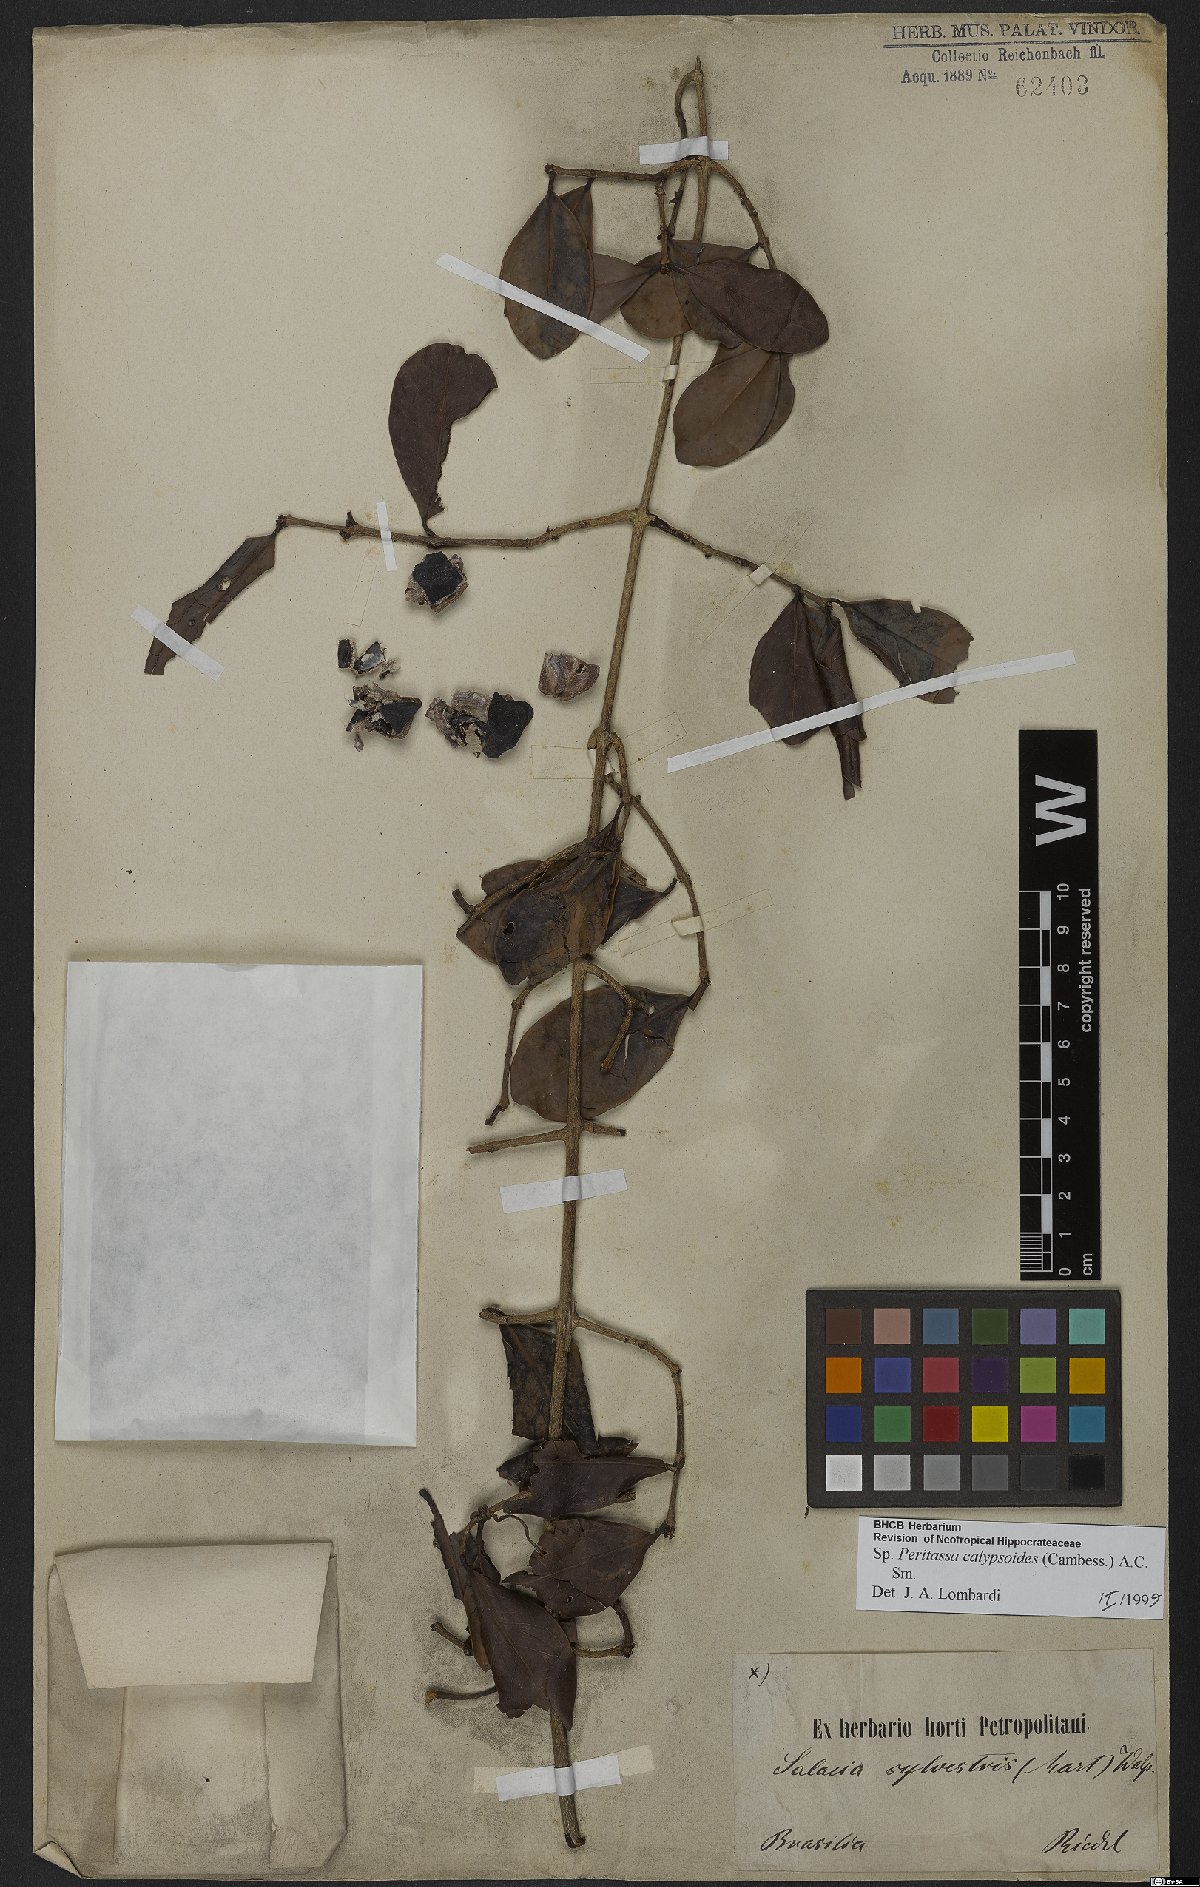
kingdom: Plantae
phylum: Tracheophyta
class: Magnoliopsida
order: Celastrales
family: Celastraceae
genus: Peritassa
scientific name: Peritassa calypsoides
